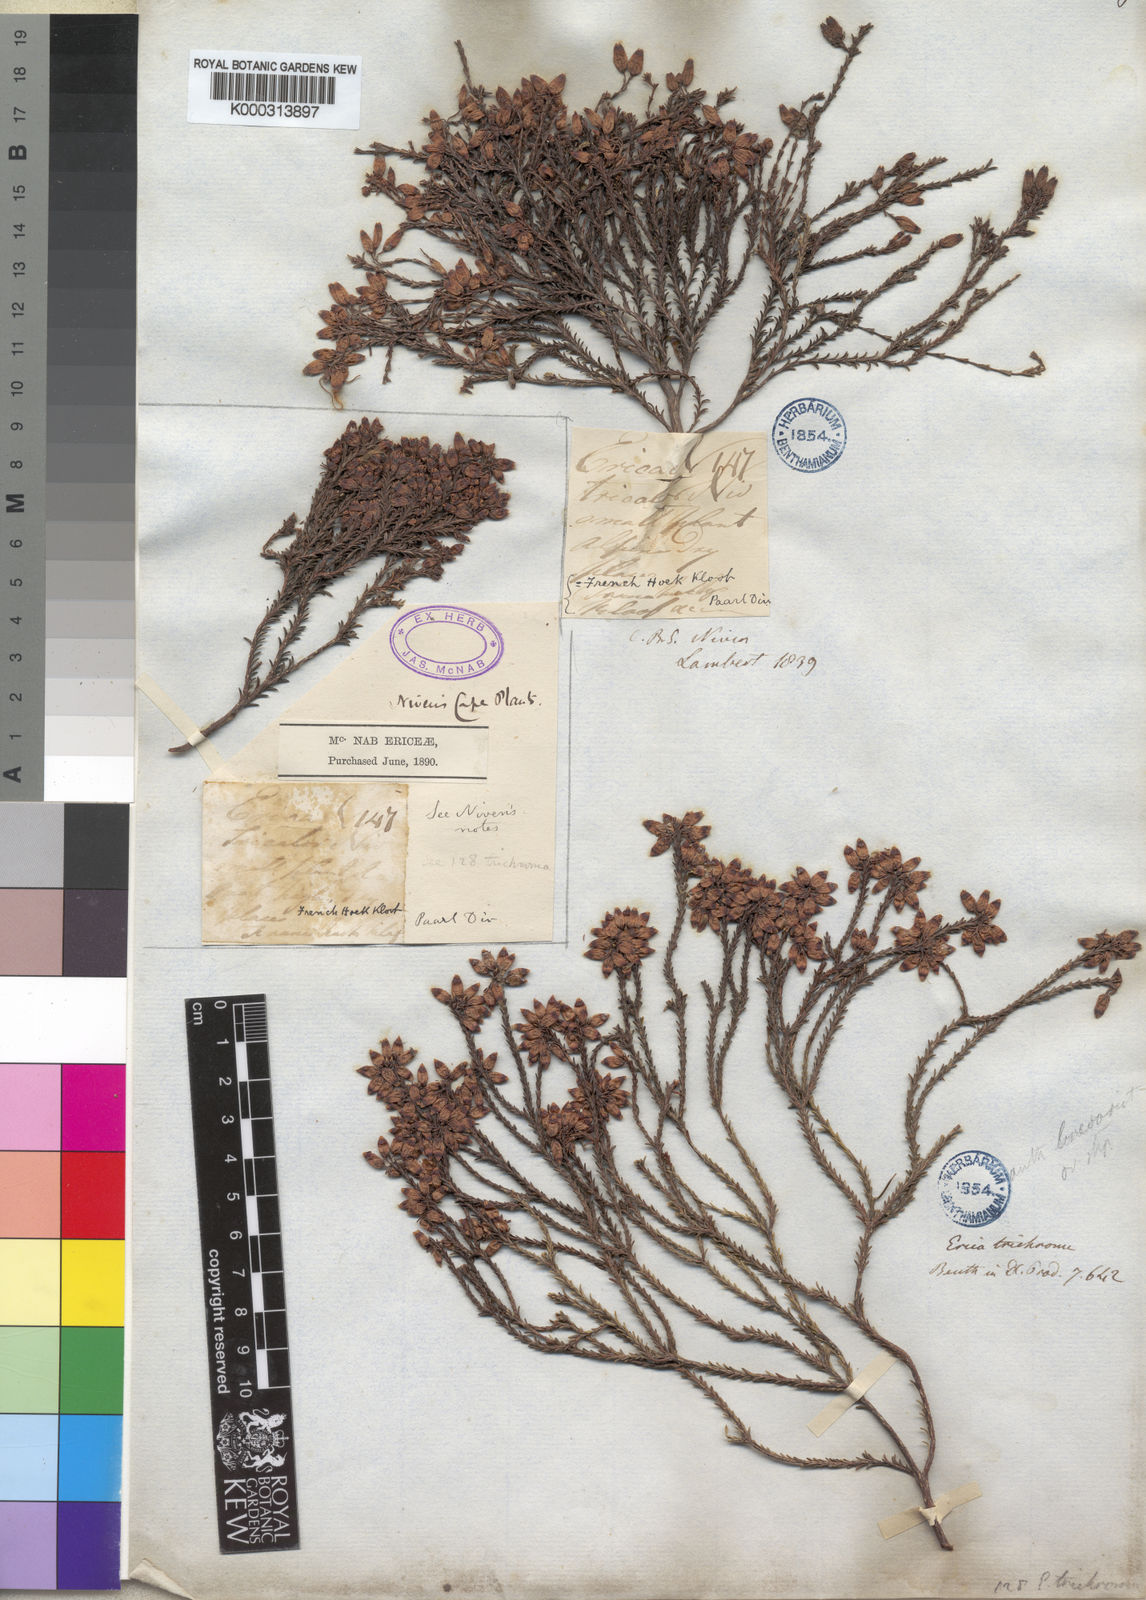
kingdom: Plantae
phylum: Tracheophyta
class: Magnoliopsida
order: Ericales
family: Ericaceae
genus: Erica
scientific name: Erica trichroma
